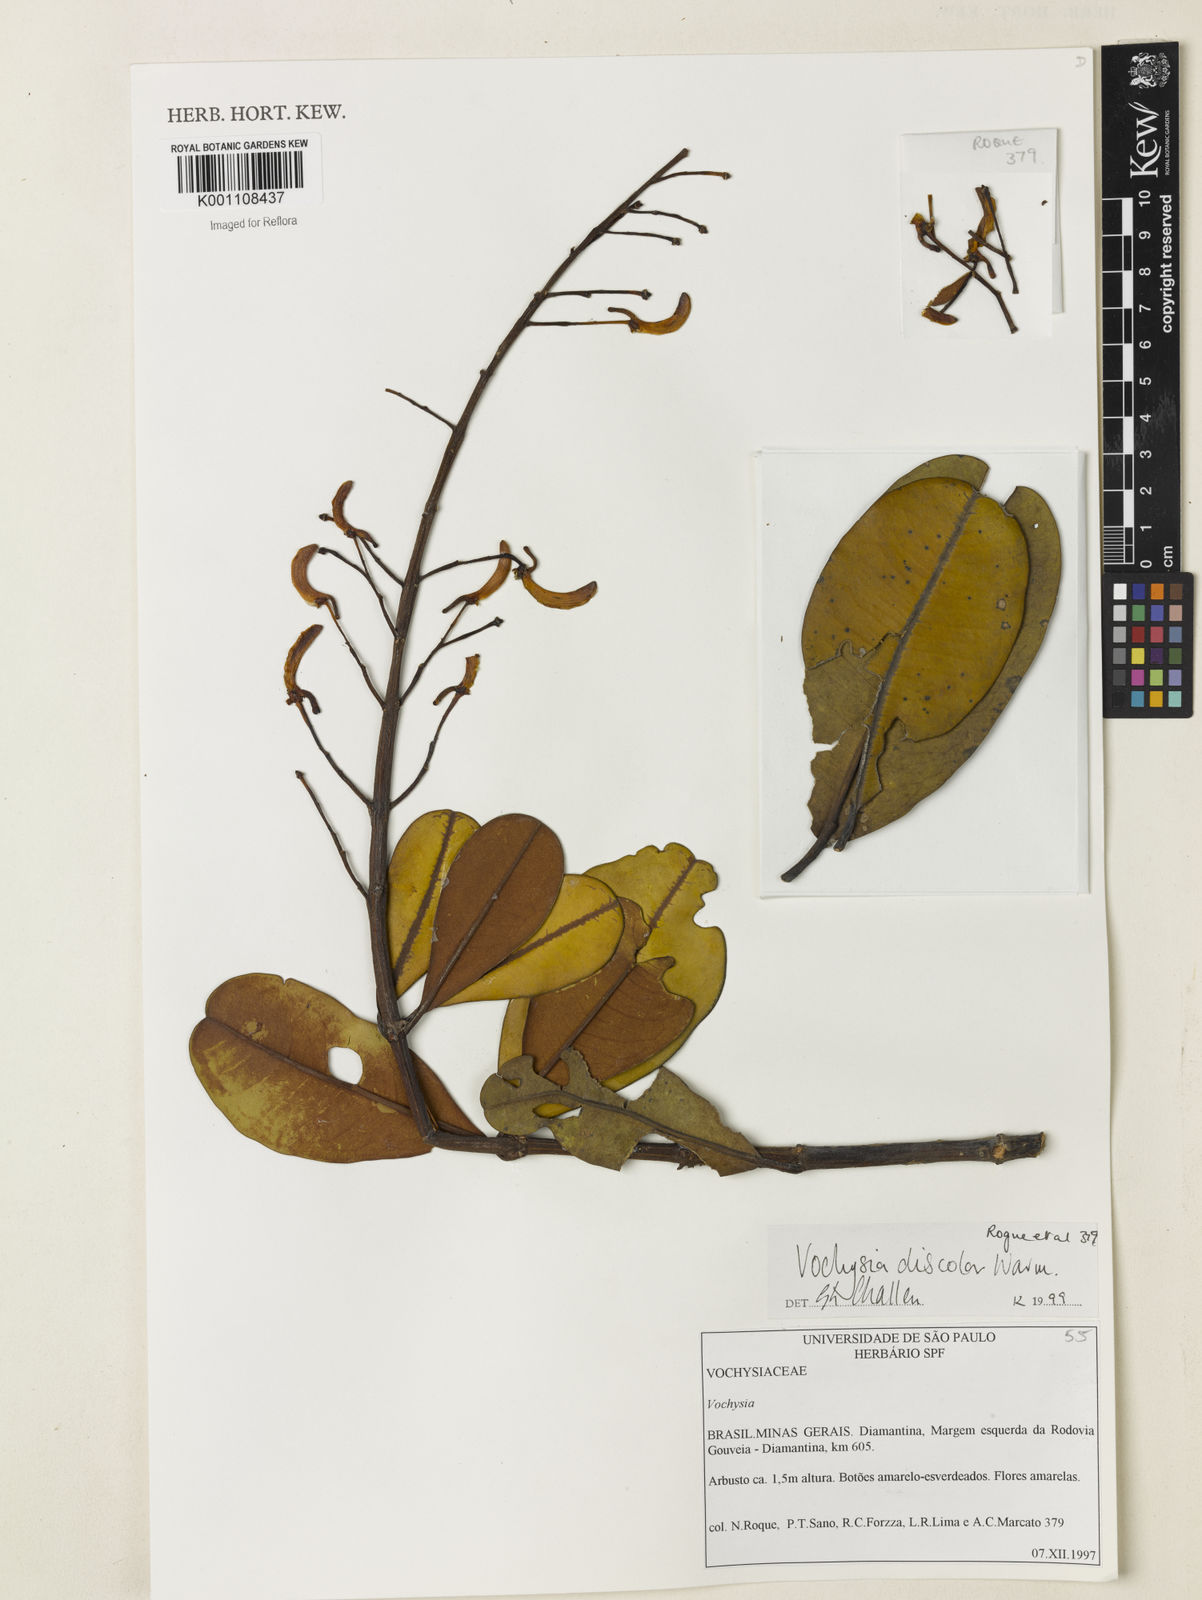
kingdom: Plantae
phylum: Tracheophyta
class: Magnoliopsida
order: Myrtales
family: Vochysiaceae
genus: Vochysia
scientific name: Vochysia discolor
